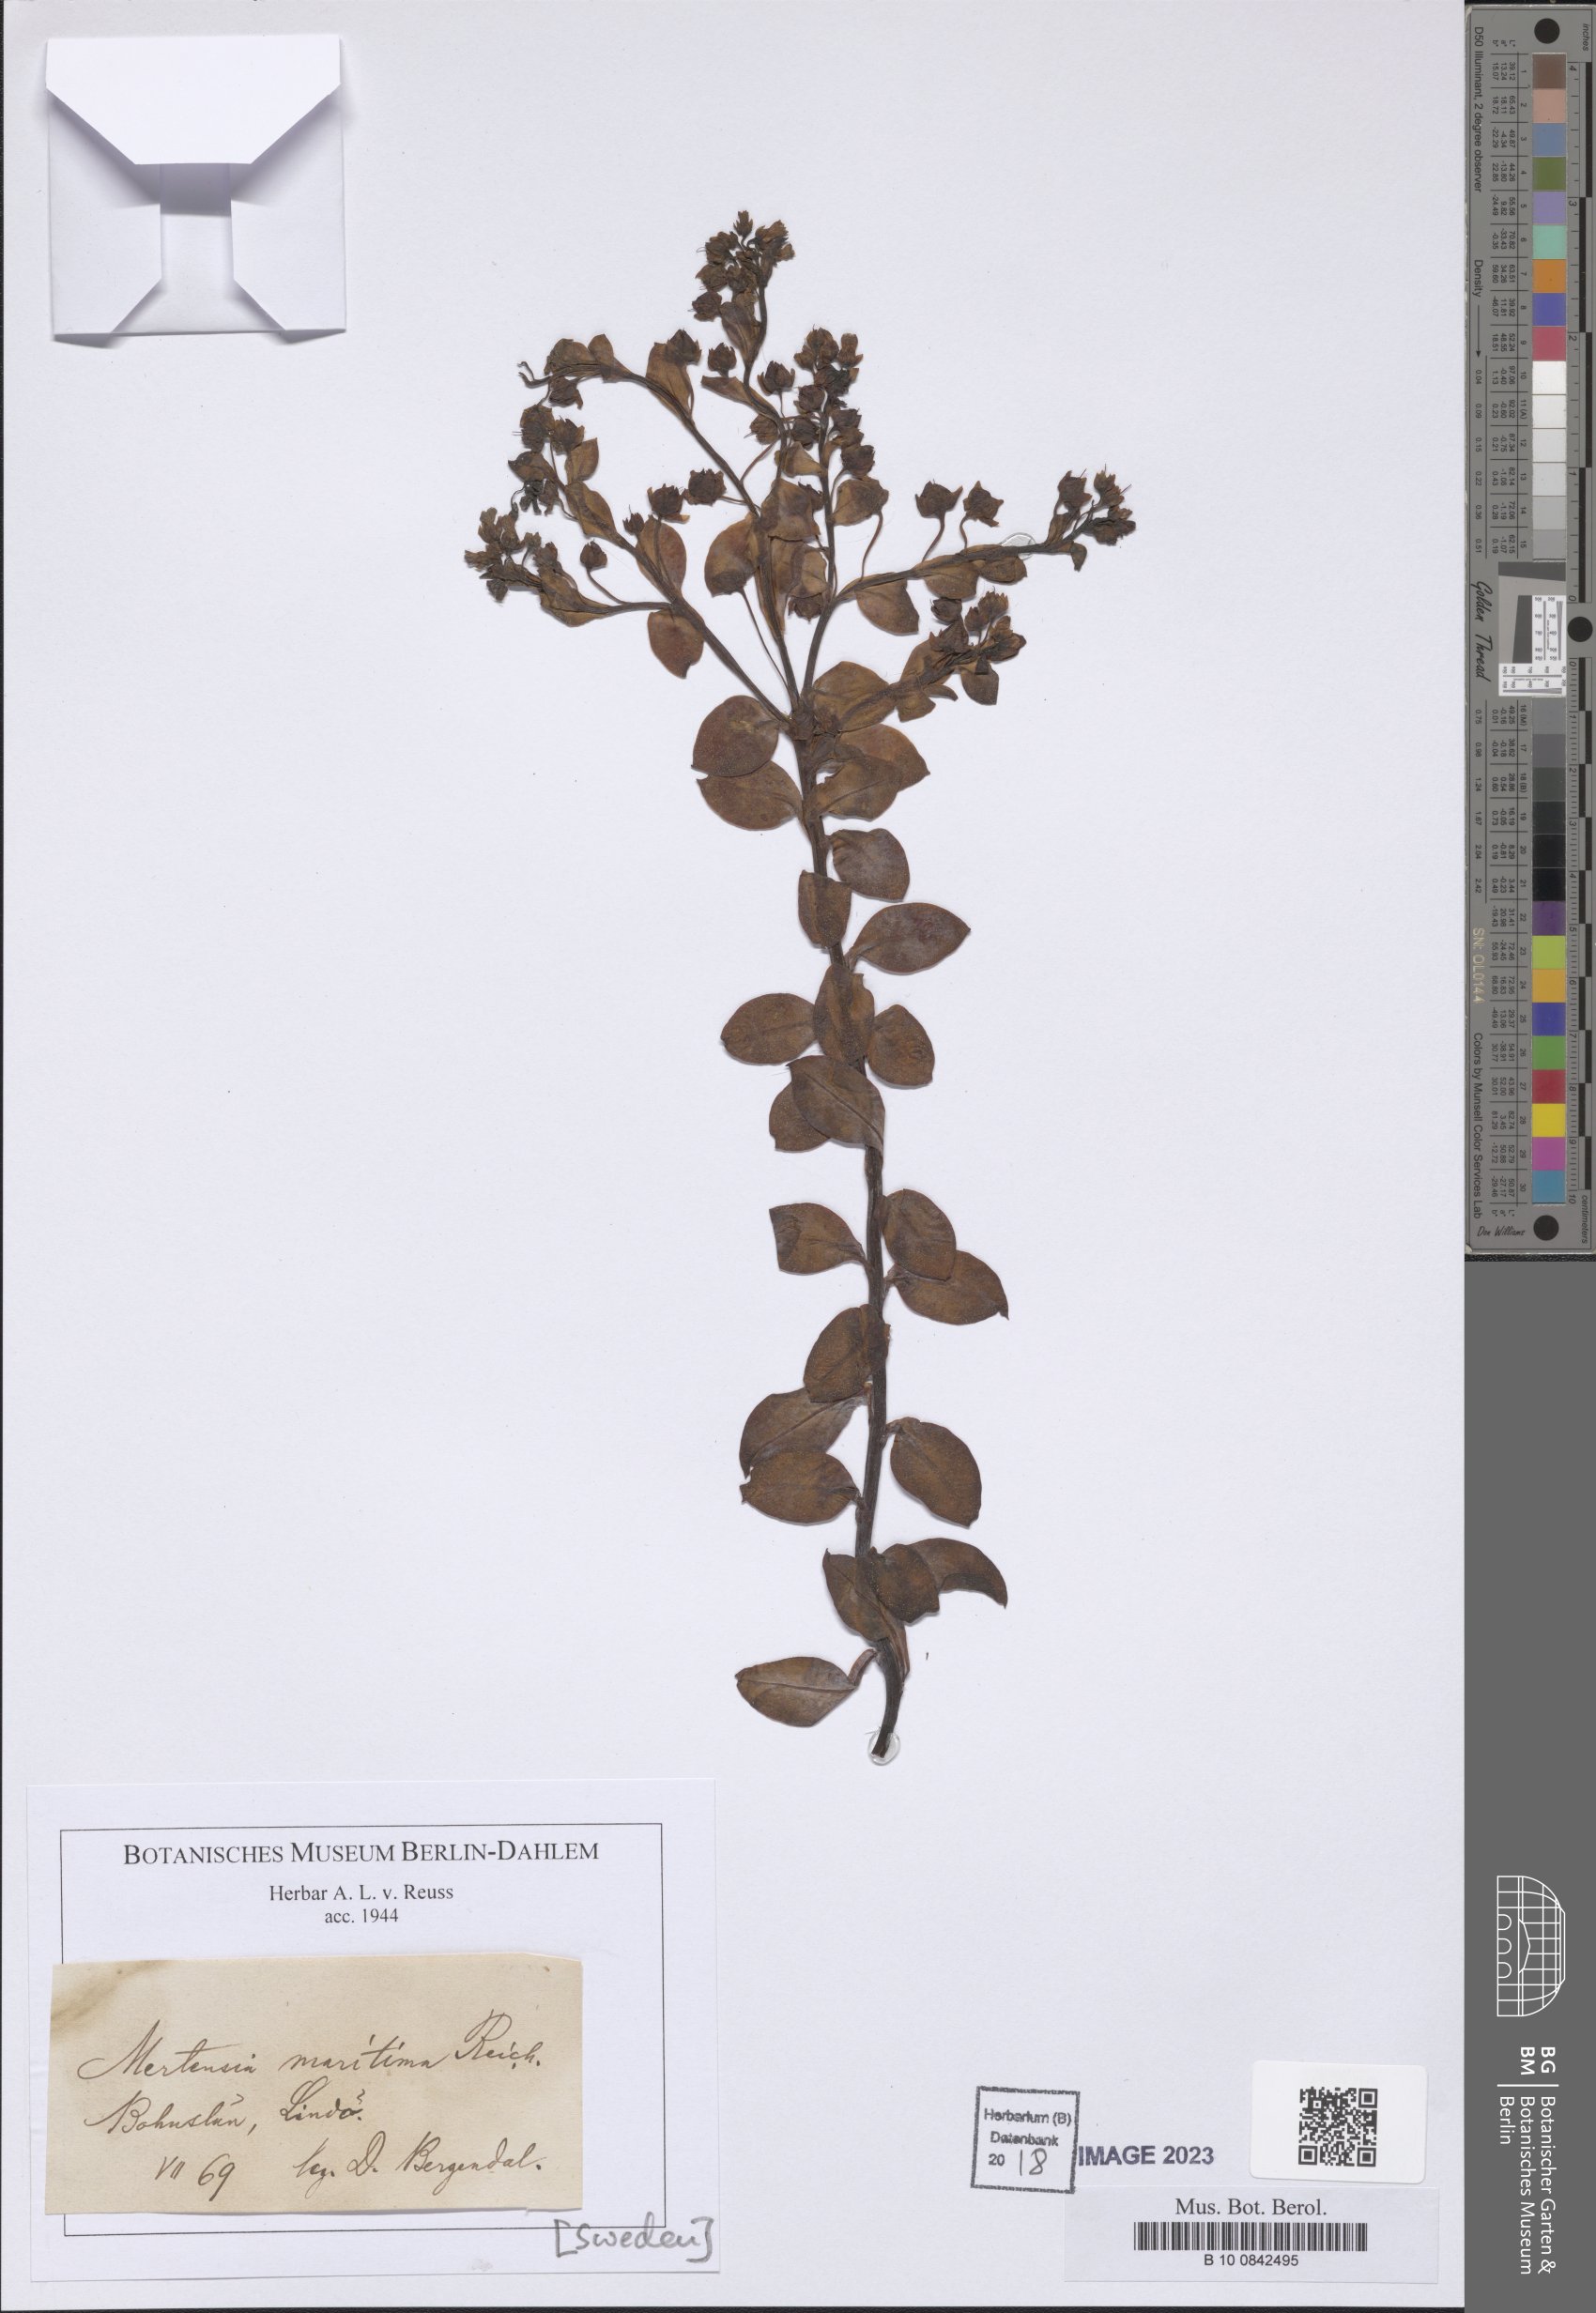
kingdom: Plantae
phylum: Tracheophyta
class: Magnoliopsida
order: Boraginales
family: Boraginaceae
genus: Mertensia
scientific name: Mertensia maritima
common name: Oysterplant
